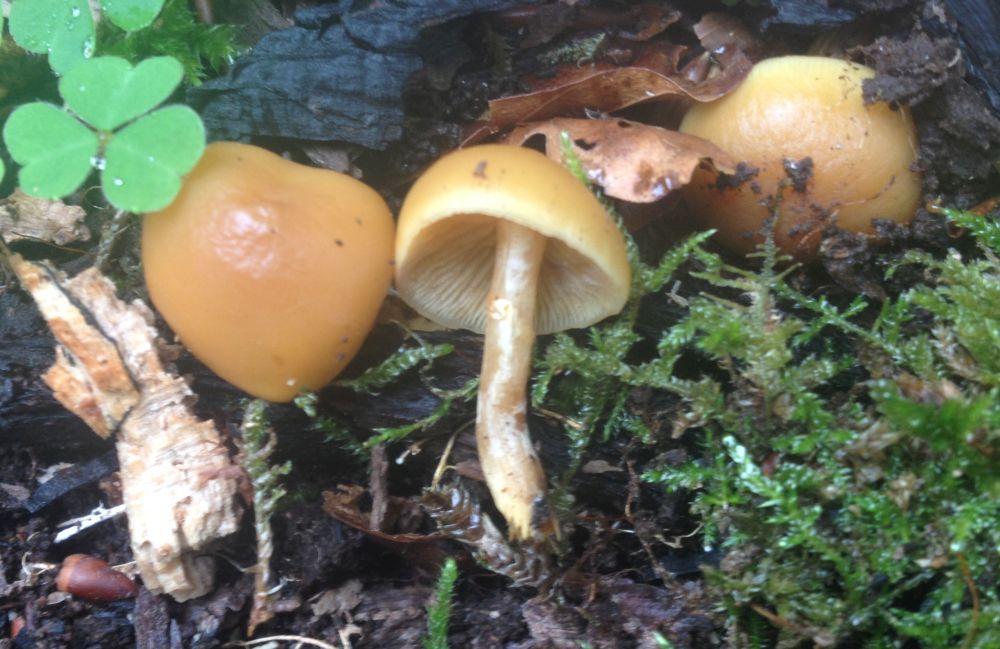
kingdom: Fungi
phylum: Basidiomycota
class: Agaricomycetes
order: Agaricales
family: Hymenogastraceae
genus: Galerina
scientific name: Galerina marginata
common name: randbæltet hjelmhat
